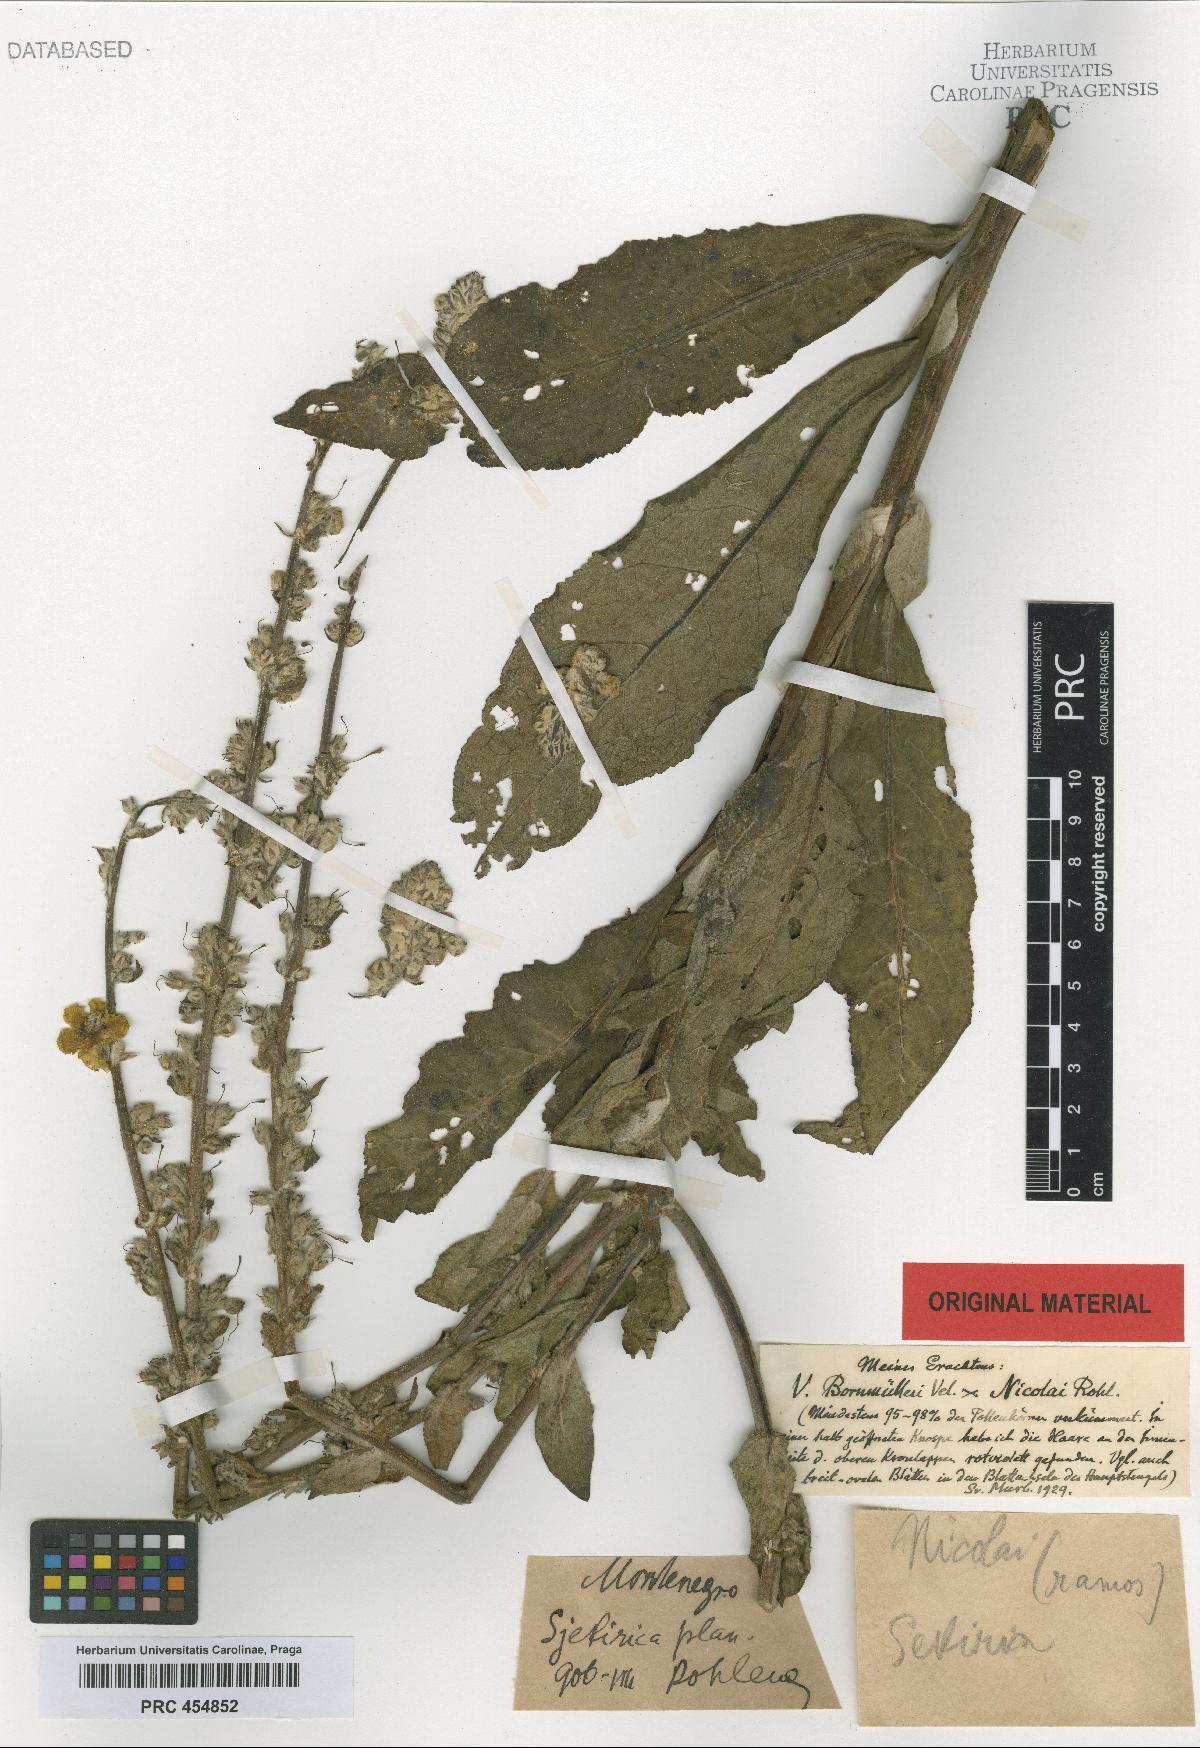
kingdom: Plantae
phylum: Tracheophyta
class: Magnoliopsida
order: Lamiales
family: Scrophulariaceae
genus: Verbascum
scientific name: Verbascum nicolai
